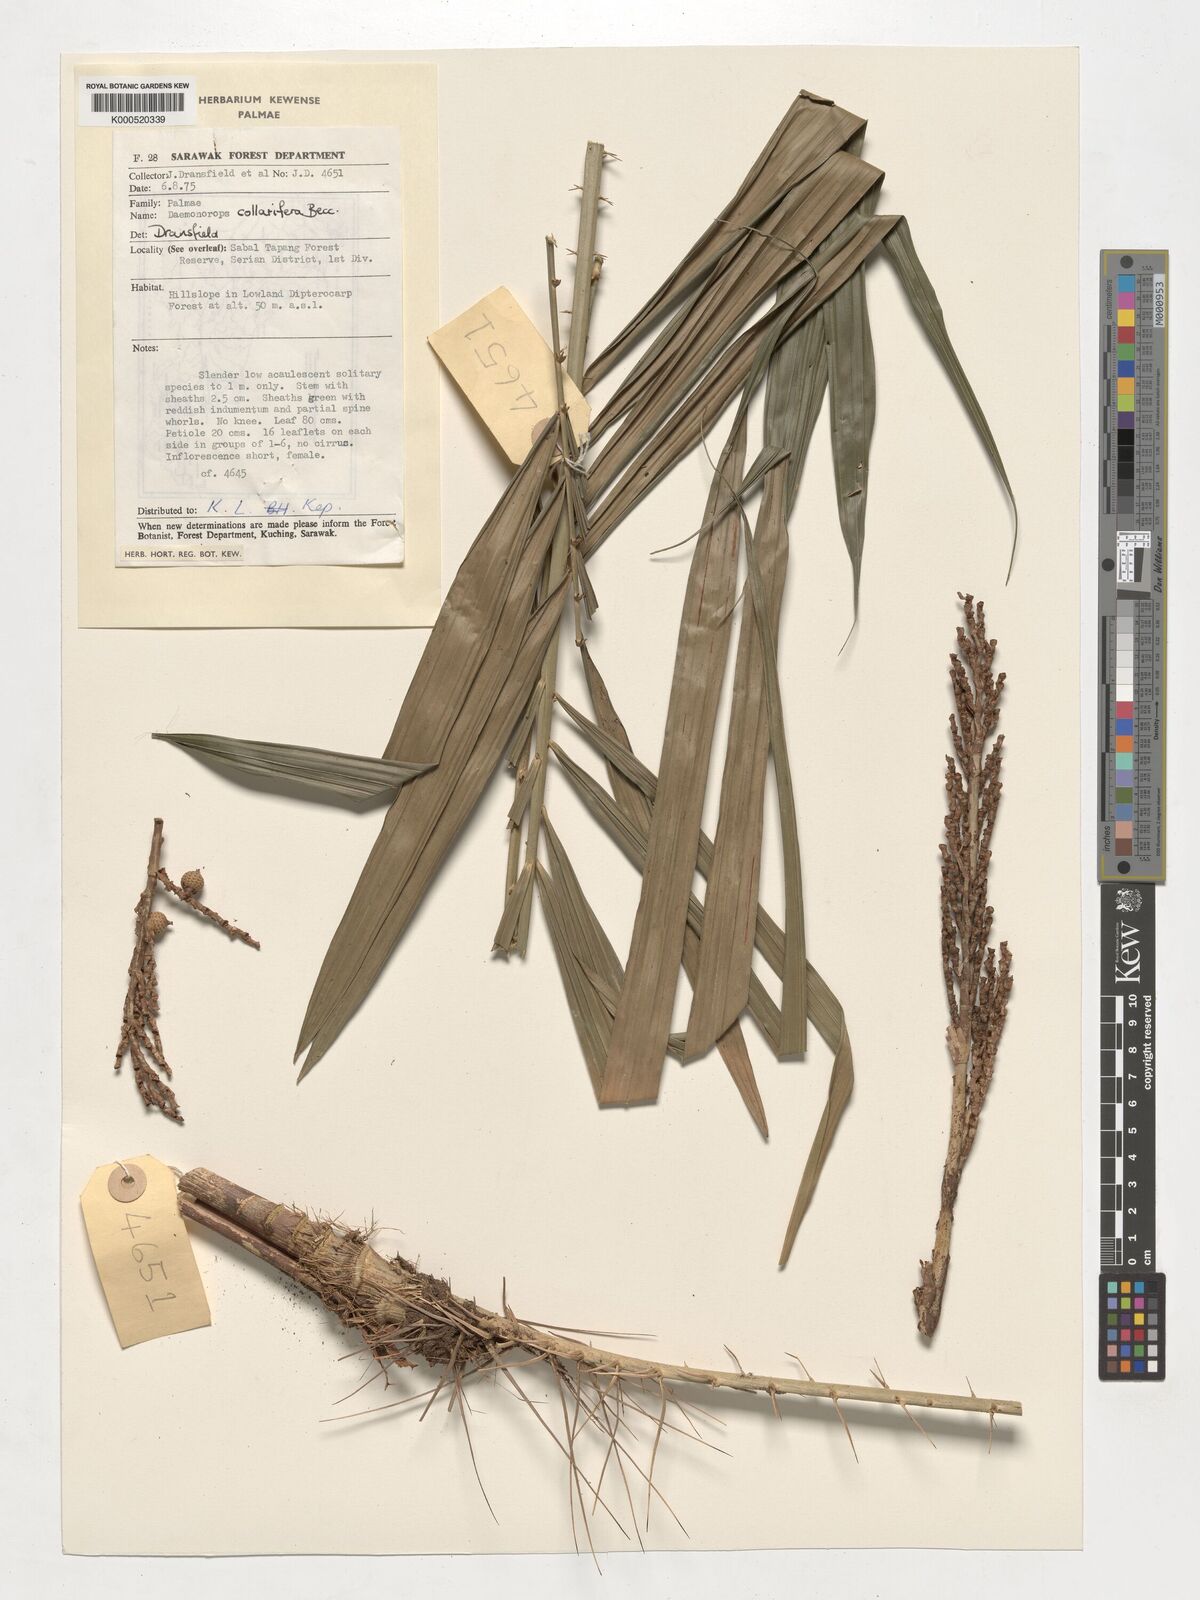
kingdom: Plantae
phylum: Tracheophyta
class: Liliopsida
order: Arecales
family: Arecaceae
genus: Calamus
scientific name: Calamus geniculatus
